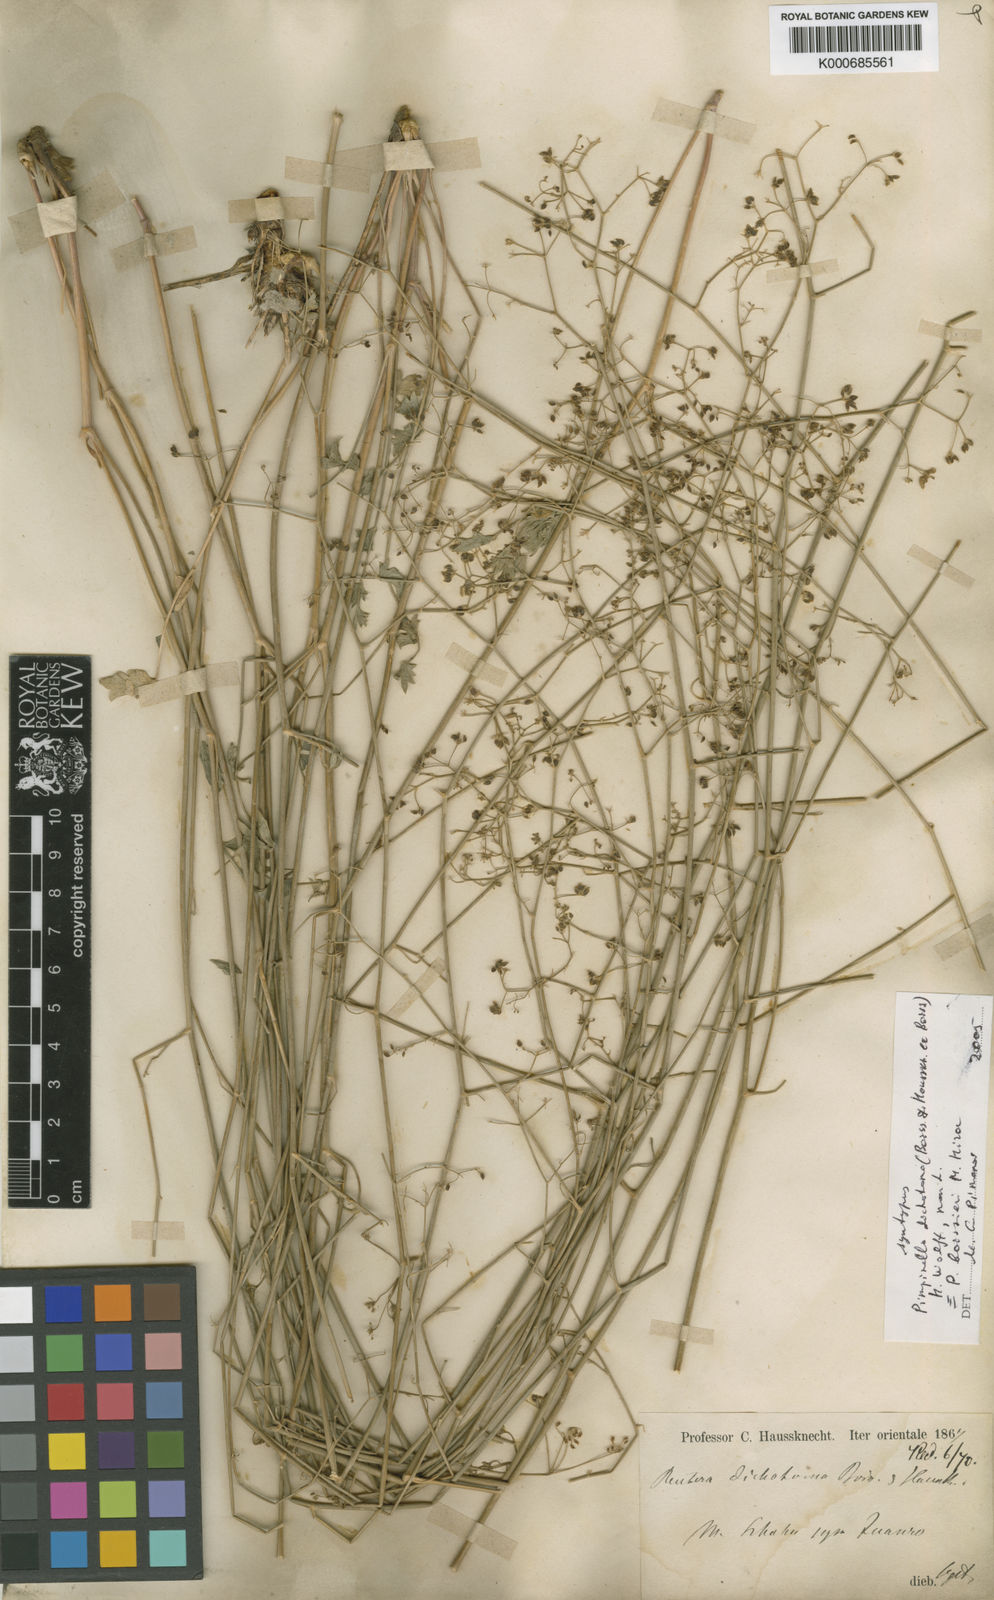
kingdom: Plantae
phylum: Tracheophyta
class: Magnoliopsida
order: Apiales
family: Apiaceae
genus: Pimpinella
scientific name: Pimpinella
